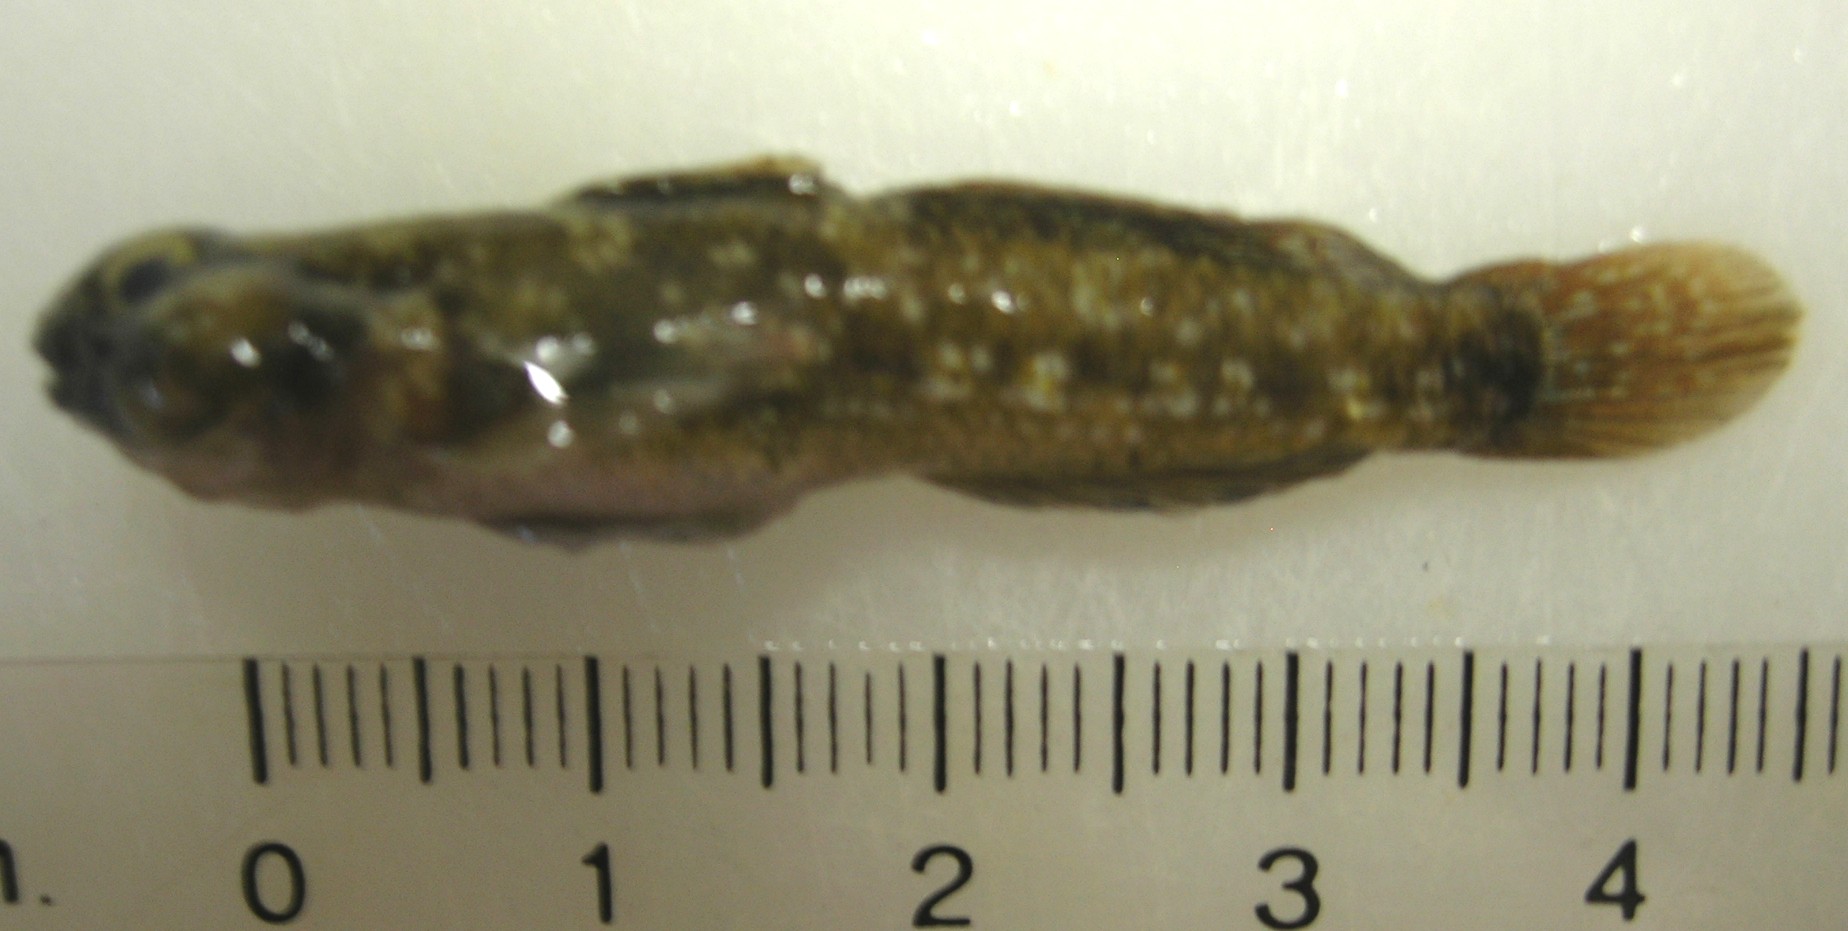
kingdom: Animalia
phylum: Chordata
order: Perciformes
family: Gobiidae
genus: Bathygobius
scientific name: Bathygobius cocosensis
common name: Cocos frillgoby
